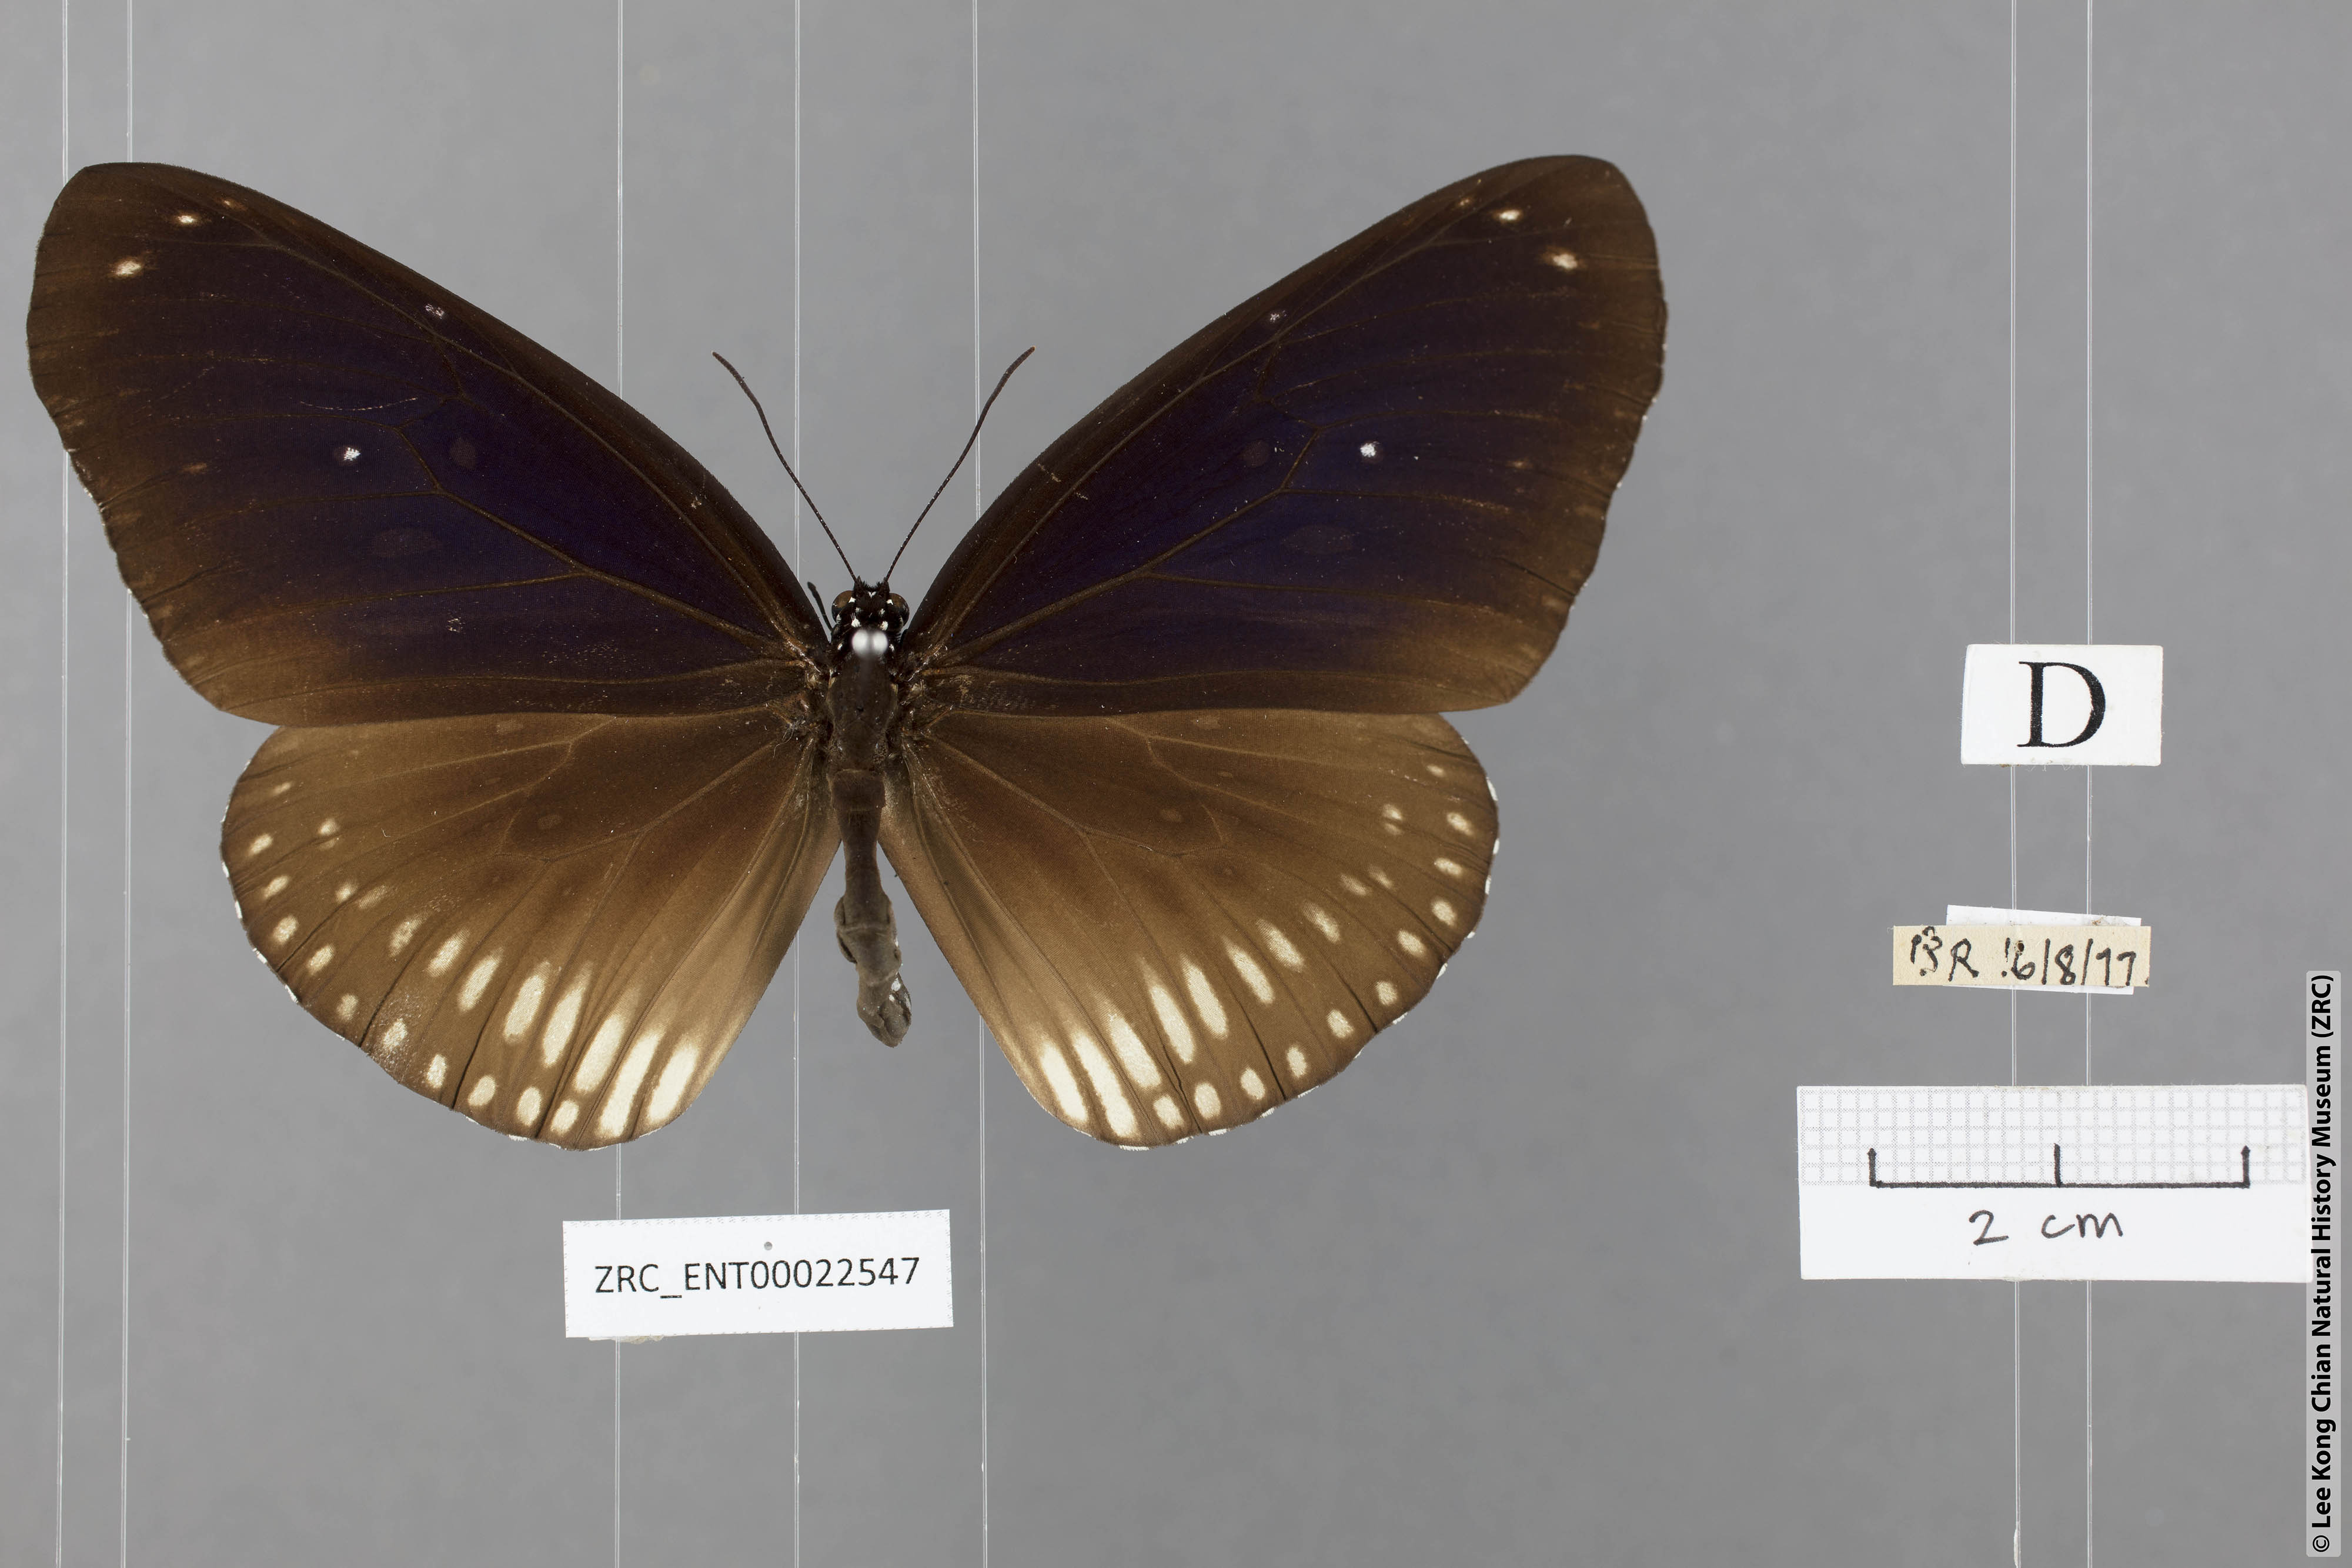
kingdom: Animalia
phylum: Arthropoda
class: Insecta
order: Lepidoptera
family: Nymphalidae
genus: Euploea
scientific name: Euploea algea
